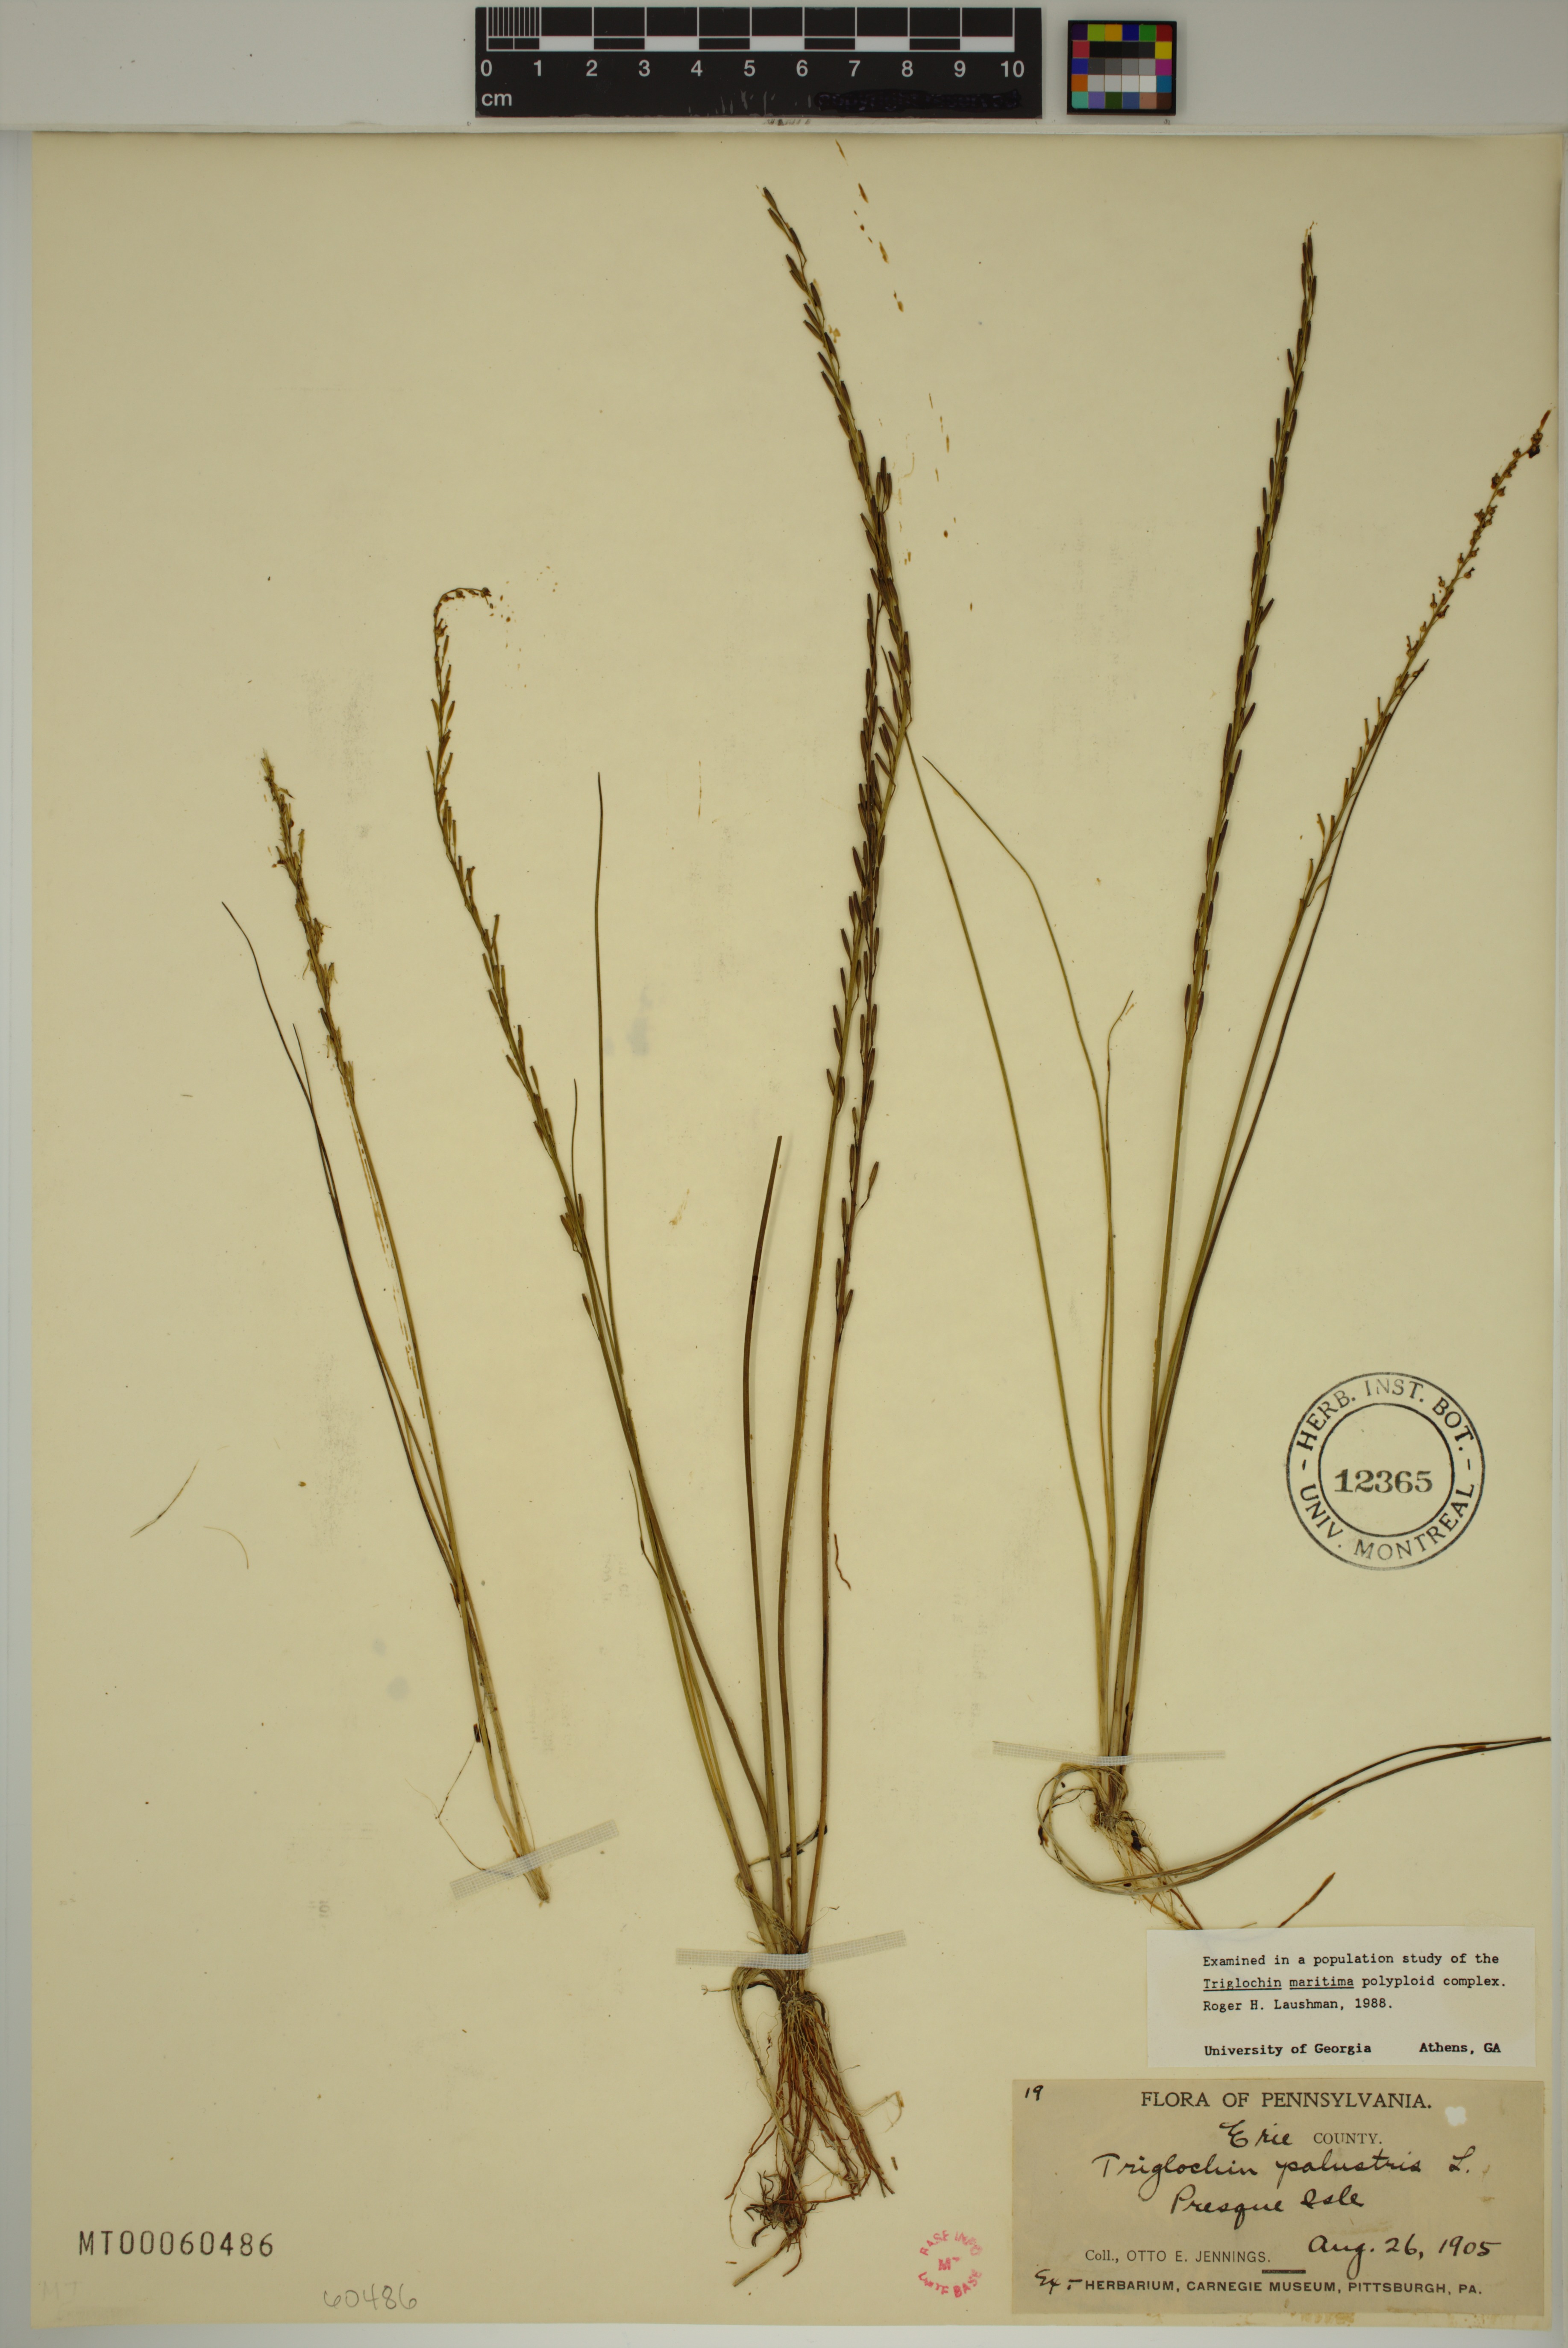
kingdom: Plantae
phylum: Tracheophyta
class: Liliopsida
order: Alismatales
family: Juncaginaceae
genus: Triglochin
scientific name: Triglochin palustris
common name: Marsh arrowgrass
